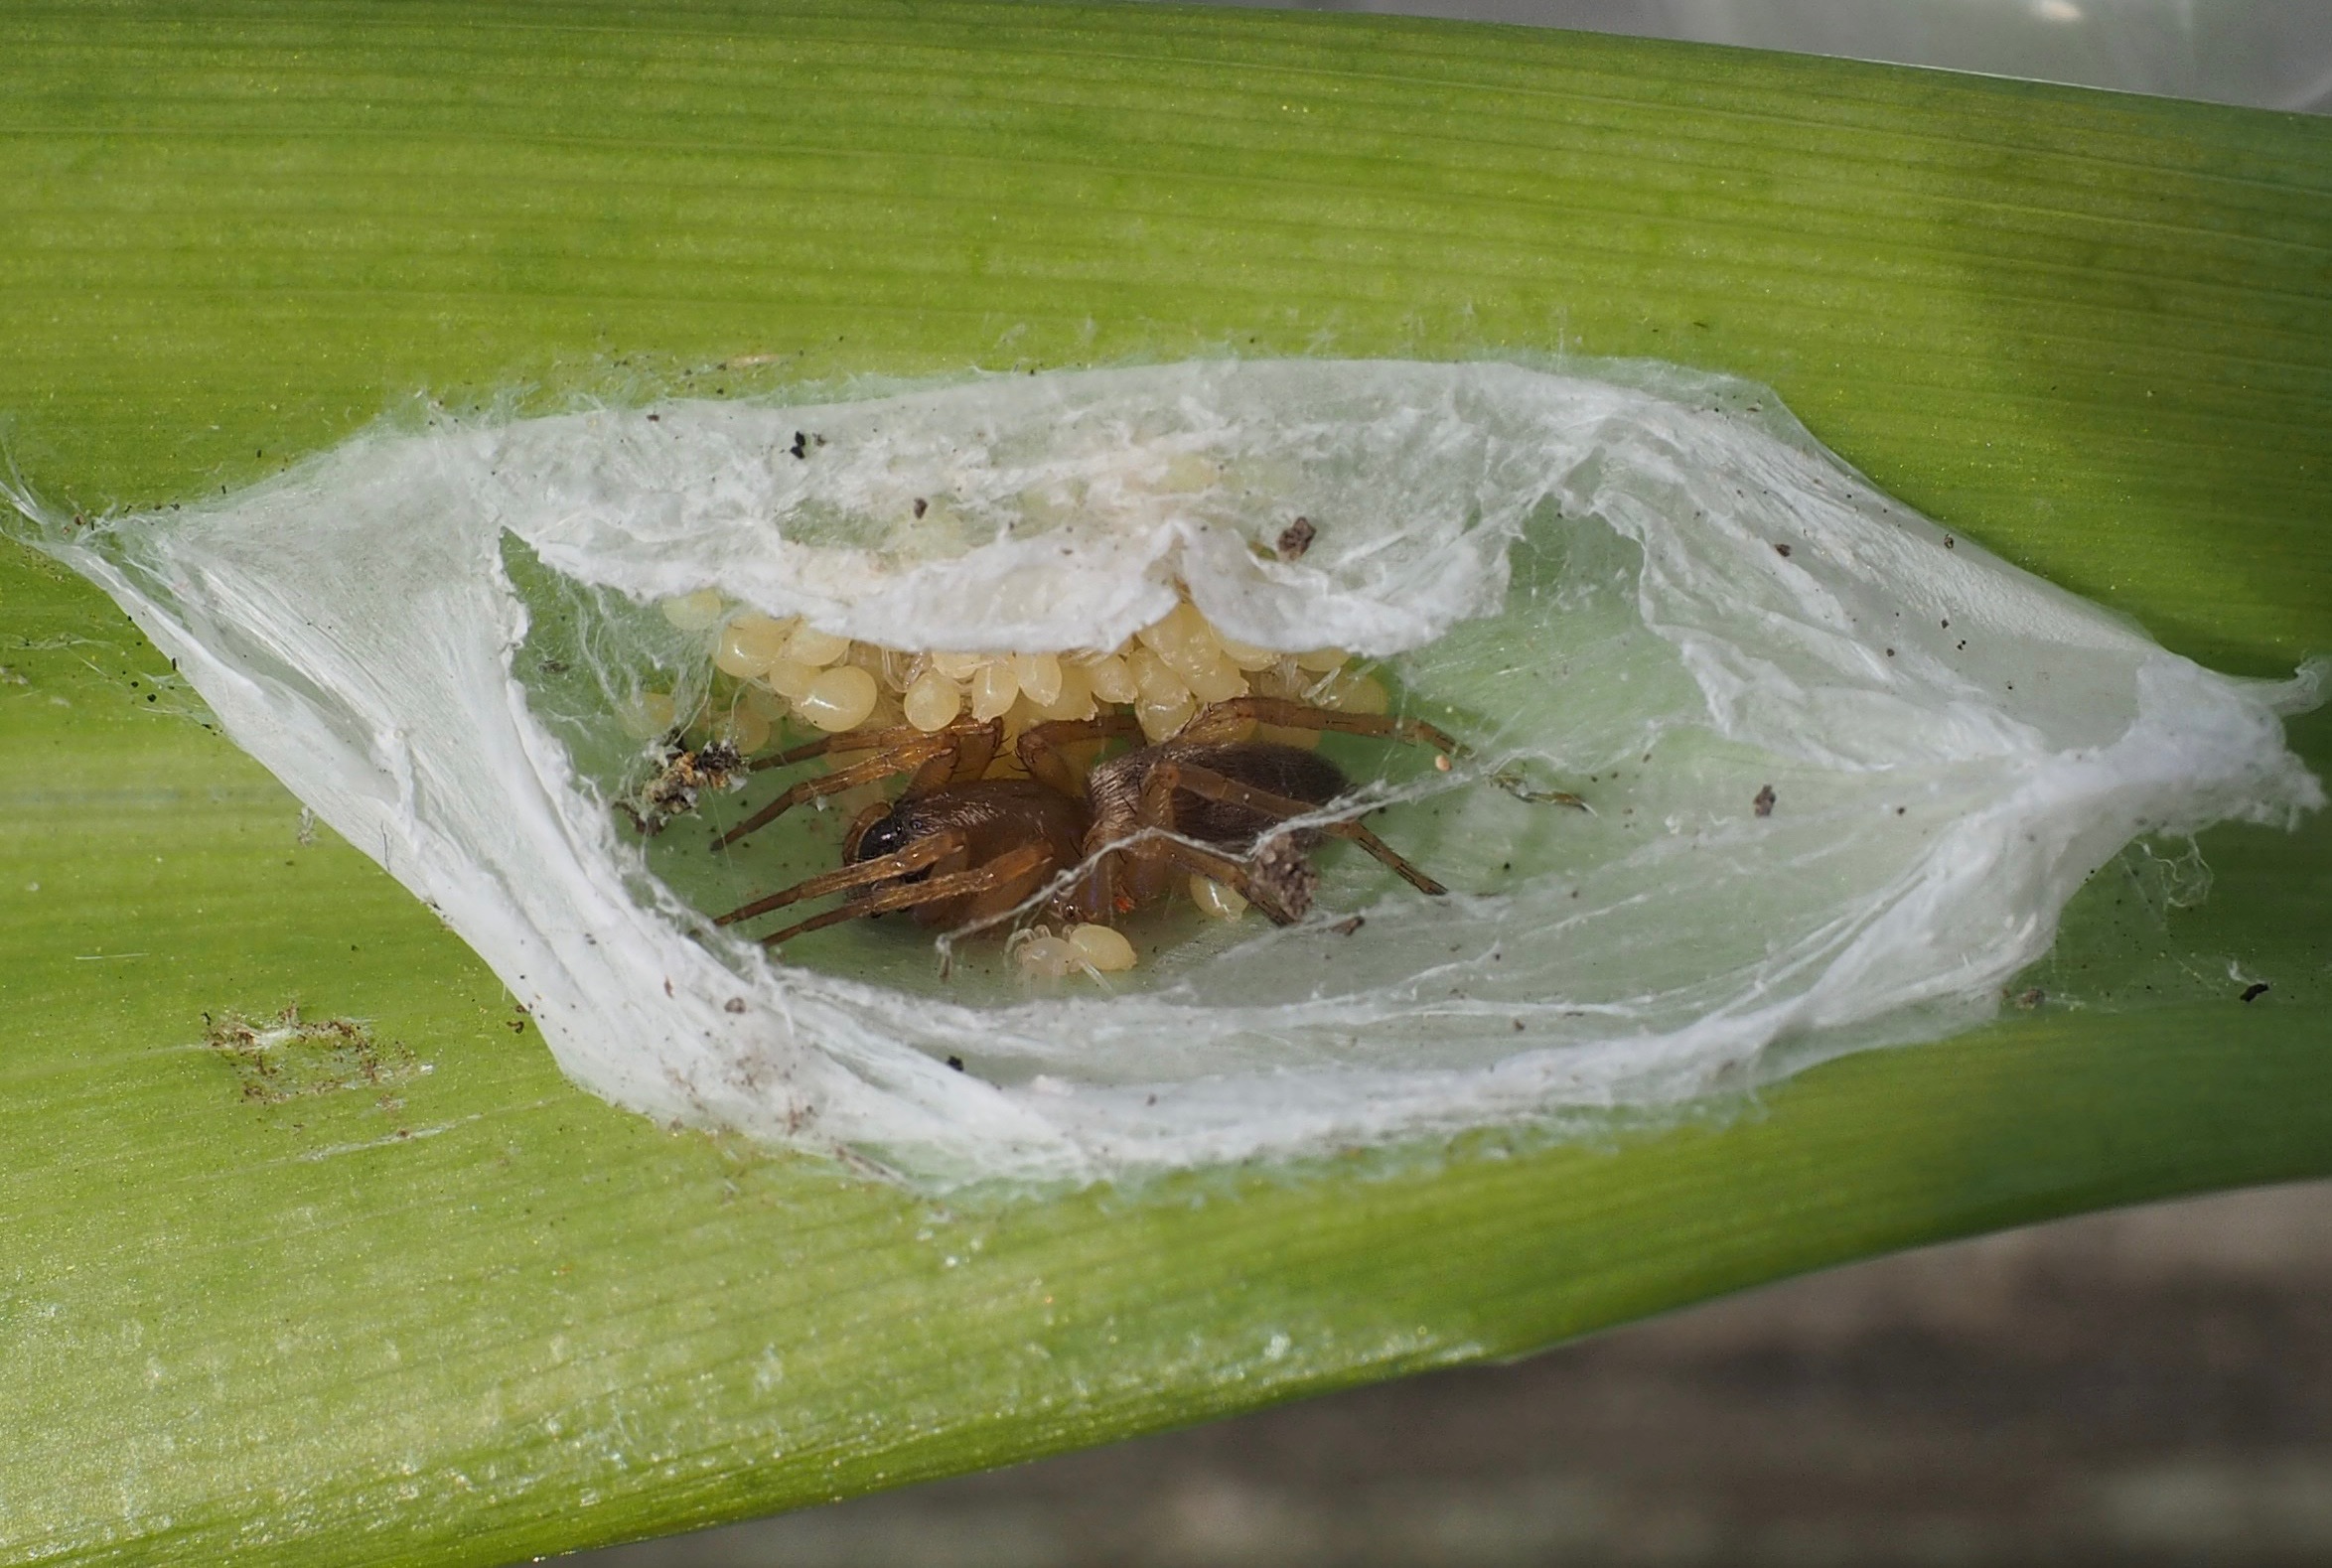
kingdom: Animalia
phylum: Arthropoda
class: Arachnida
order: Araneae
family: Clubionidae
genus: Clubiona
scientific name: Clubiona
